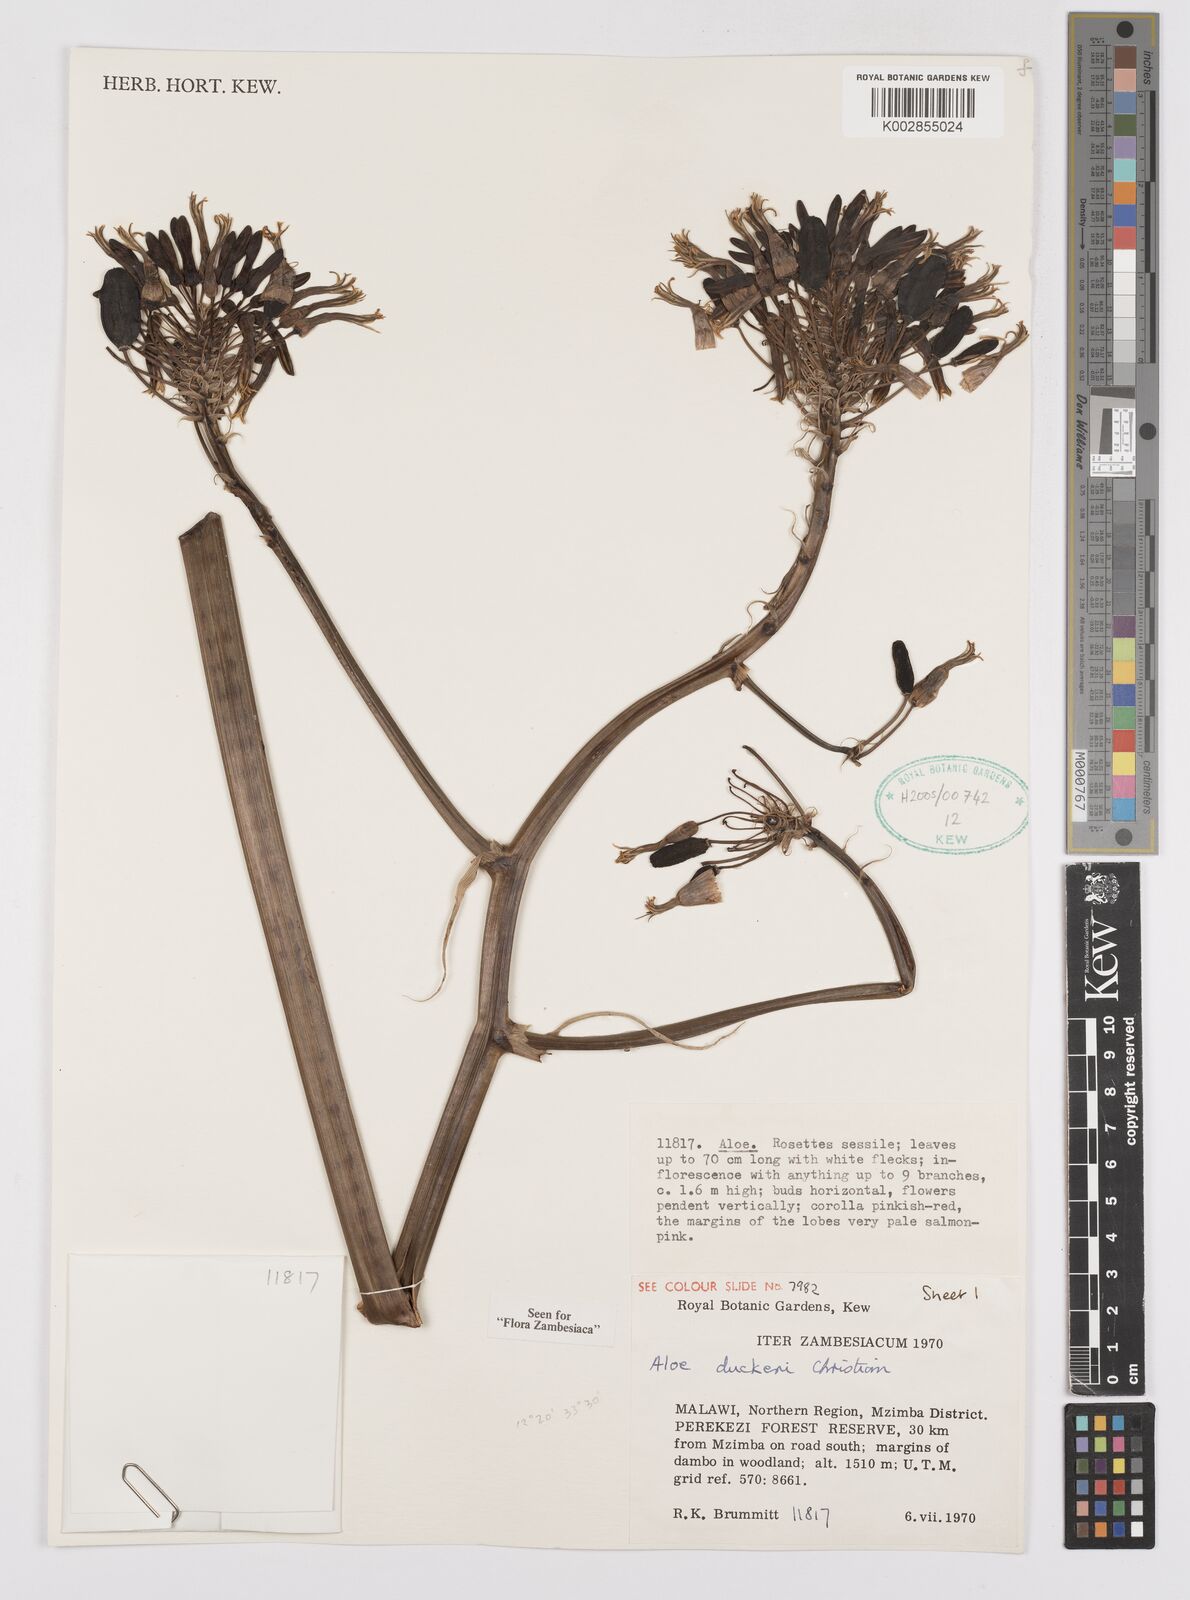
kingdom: Plantae
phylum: Tracheophyta
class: Liliopsida
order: Asparagales
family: Asphodelaceae
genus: Aloe
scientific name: Aloe duckeri
